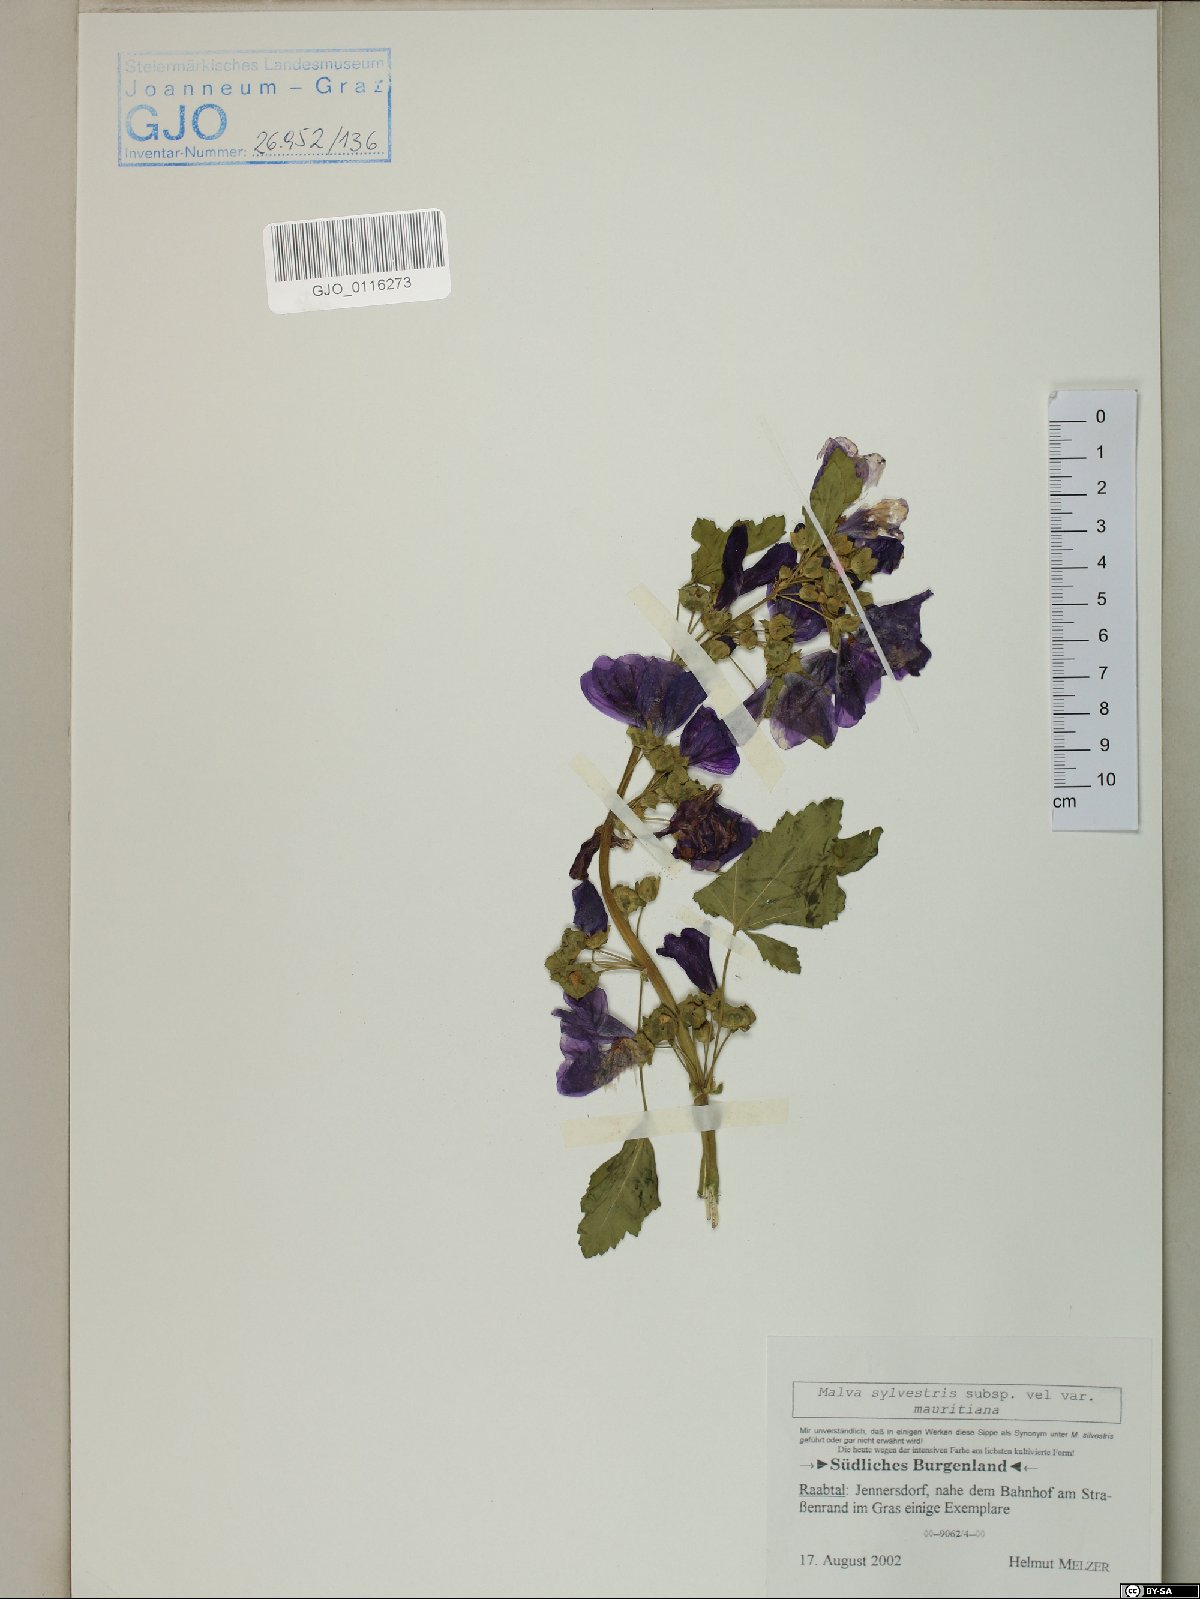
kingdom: Plantae
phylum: Tracheophyta
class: Magnoliopsida
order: Malvales
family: Malvaceae
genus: Malva
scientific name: Malva sylvestris
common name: Common mallow
